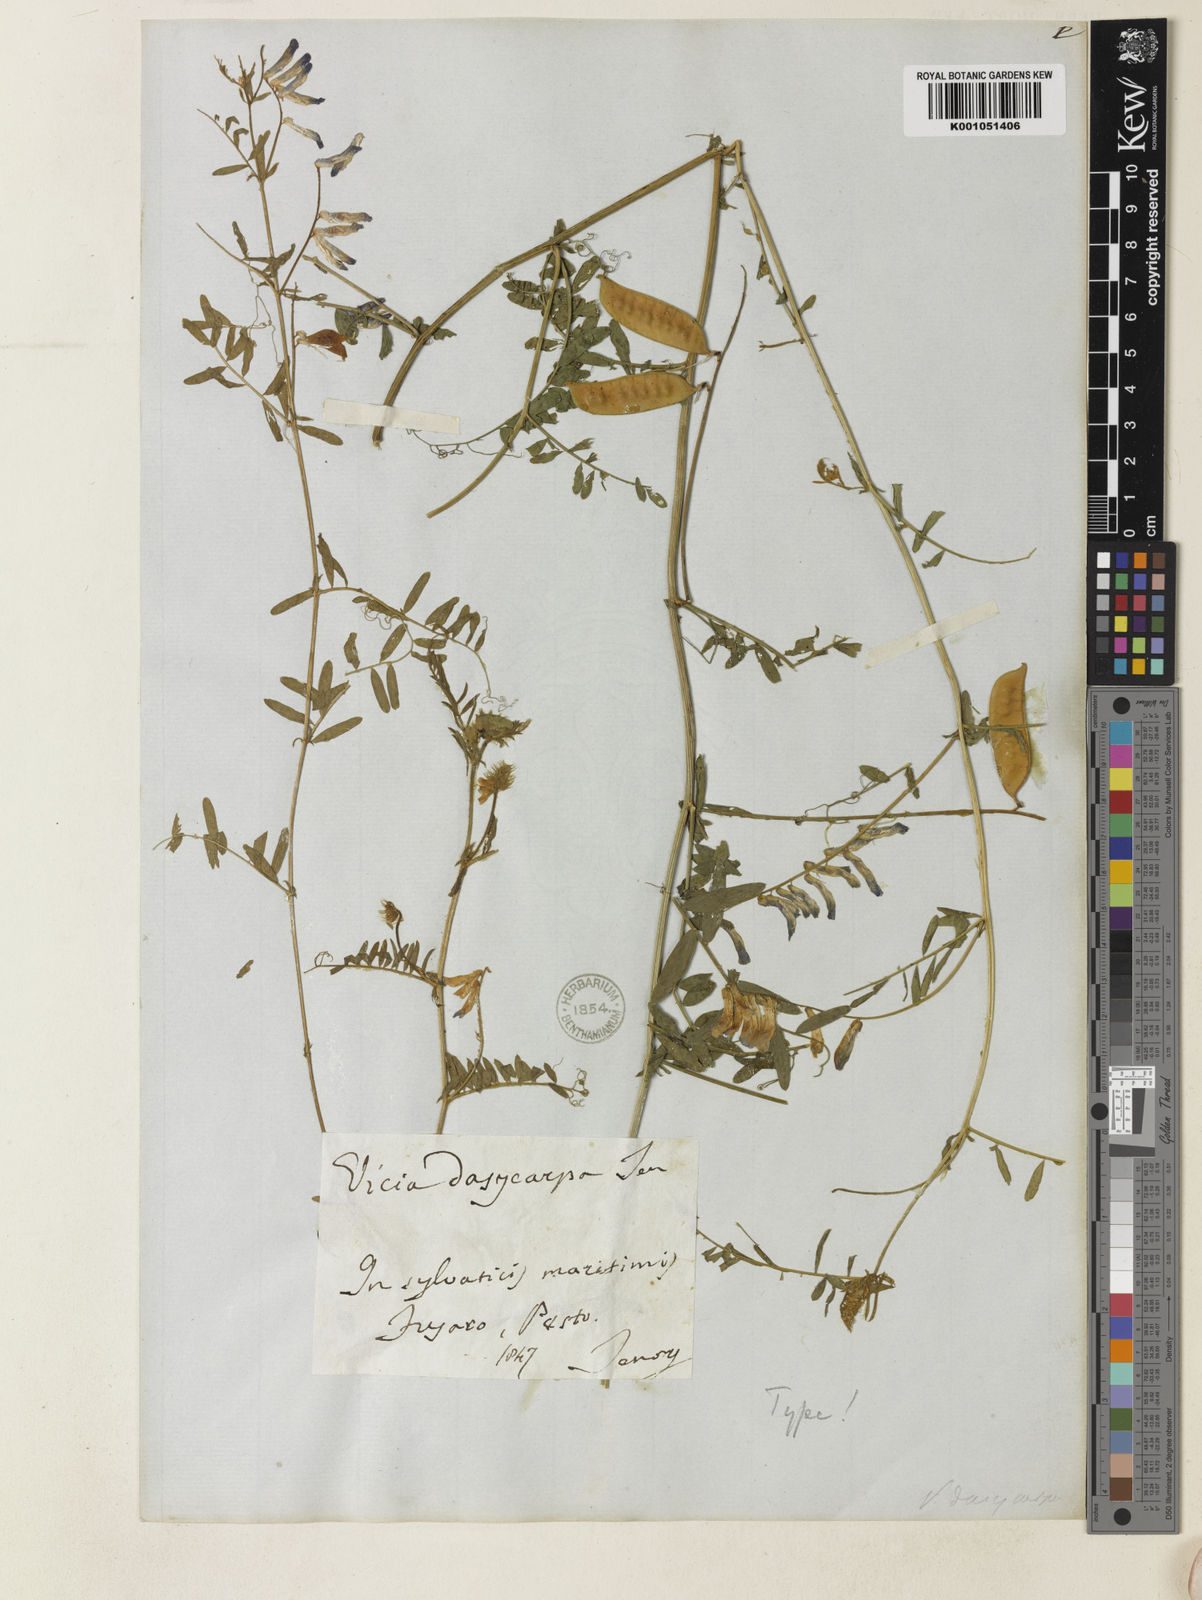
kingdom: Plantae
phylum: Tracheophyta
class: Magnoliopsida
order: Fabales
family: Fabaceae
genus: Vicia
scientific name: Vicia villosa
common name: Fodder vetch
